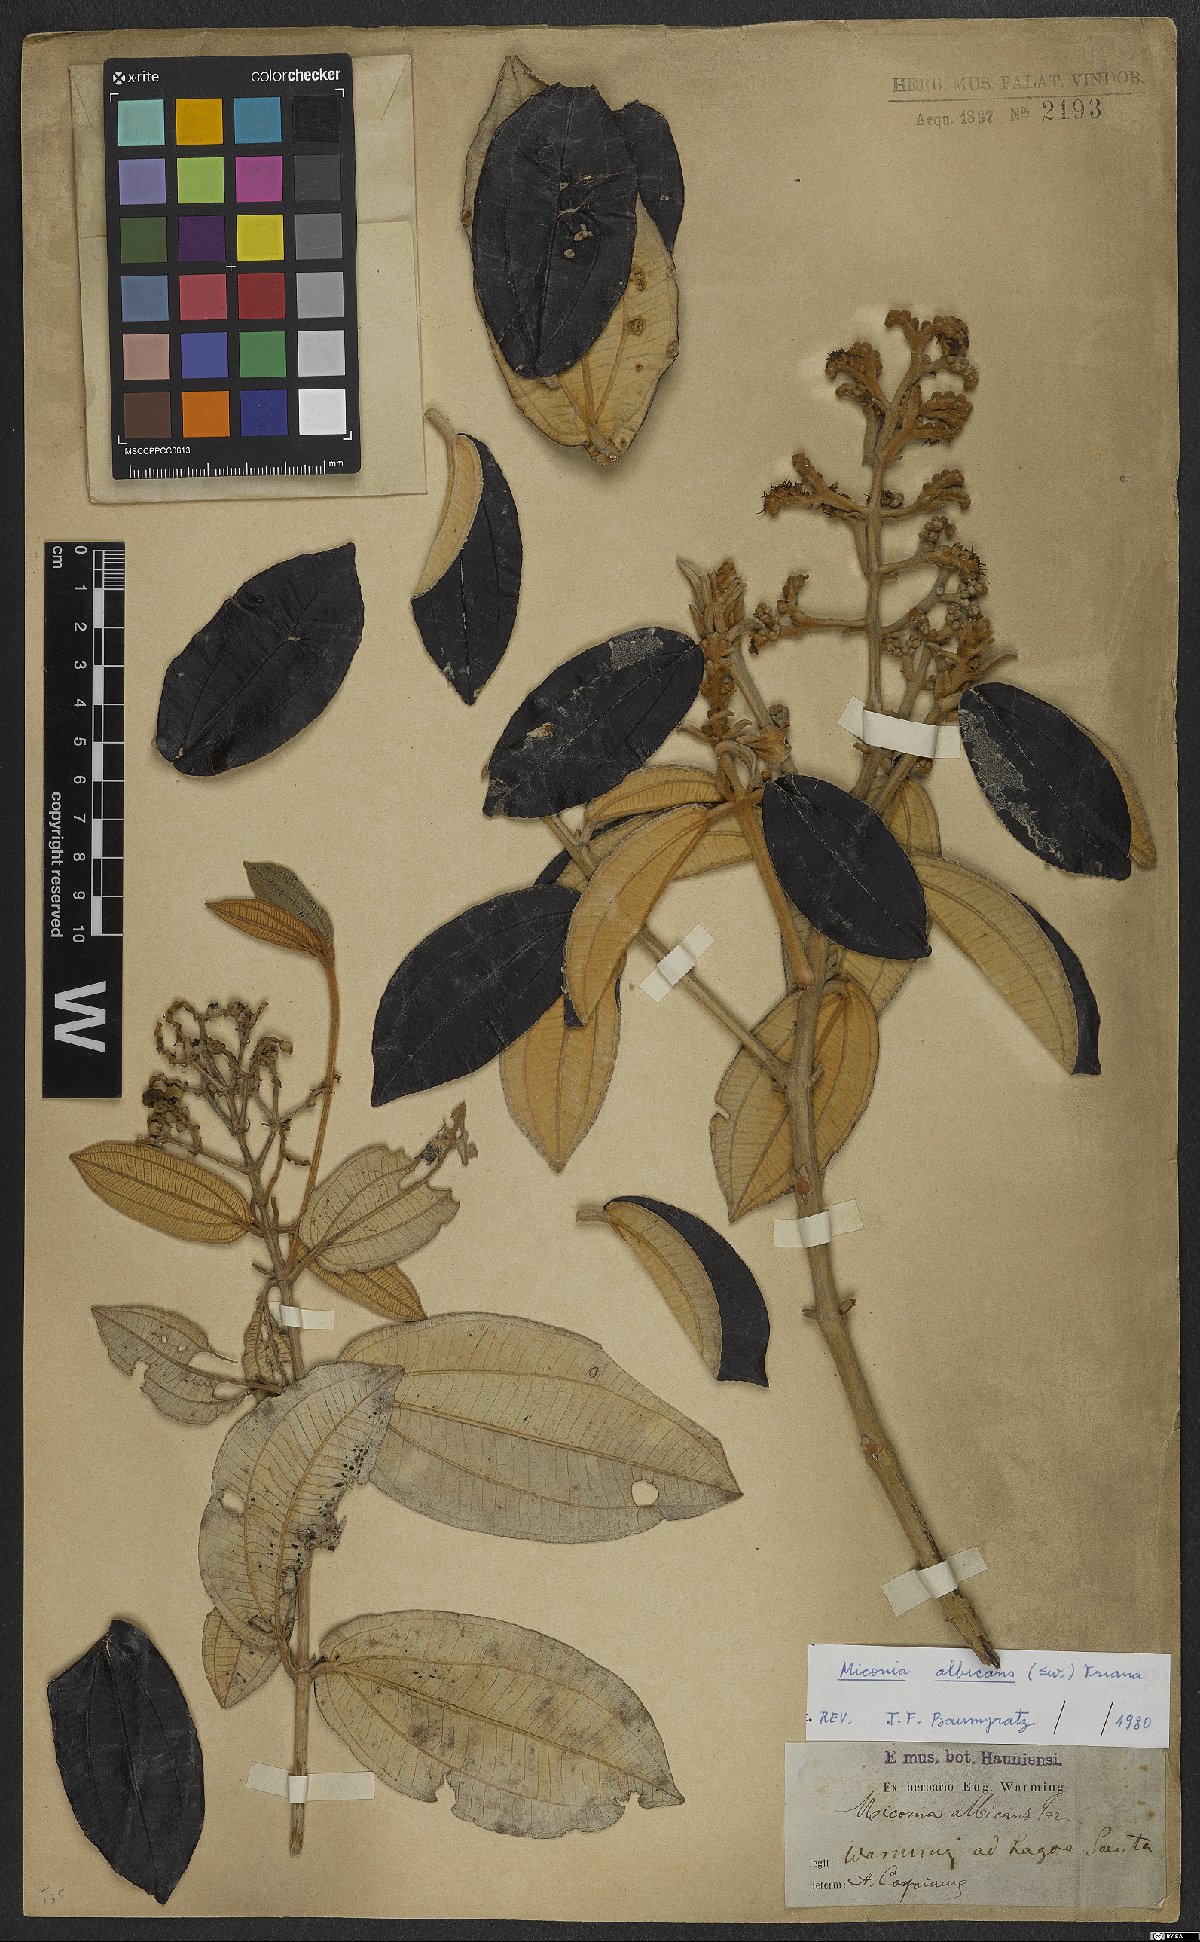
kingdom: Plantae
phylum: Tracheophyta
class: Magnoliopsida
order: Myrtales
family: Melastomataceae
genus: Miconia
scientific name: Miconia albicans
